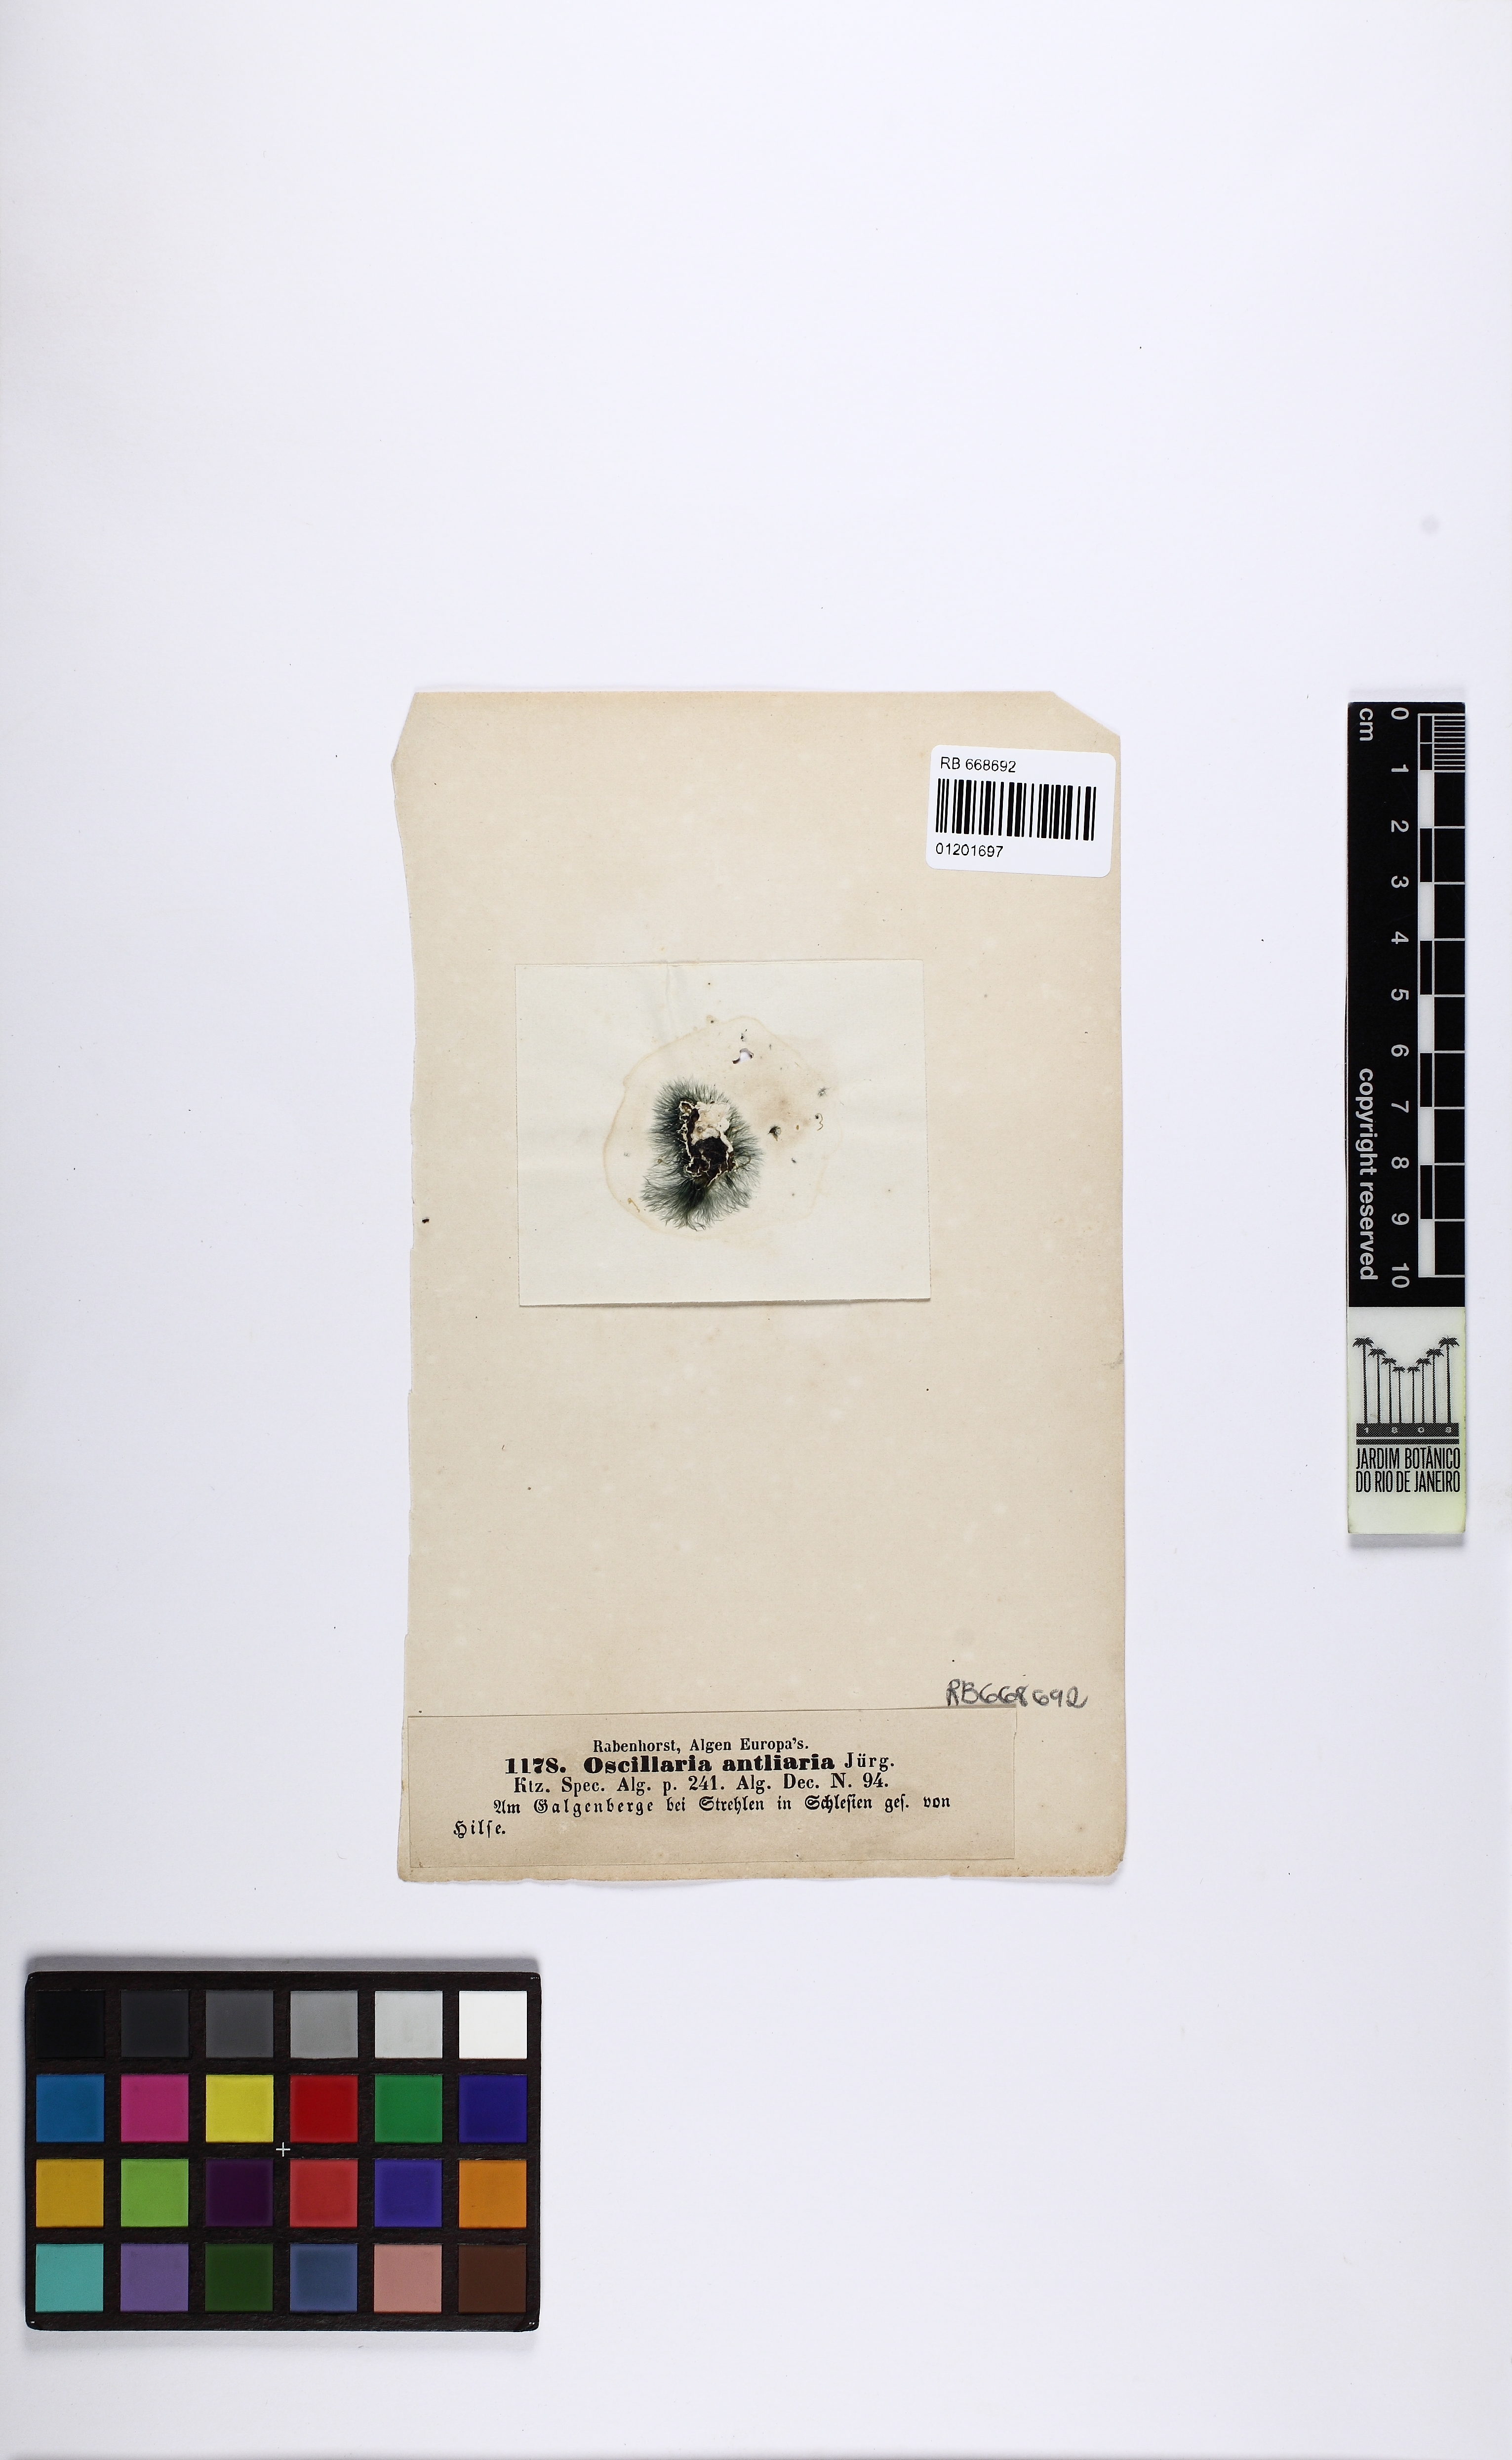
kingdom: Bacteria
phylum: Cyanobacteria
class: Cyanobacteriia
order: Cyanobacteriales
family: Oscillatoriaceae
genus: Oscillatoria
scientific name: Oscillatoria
